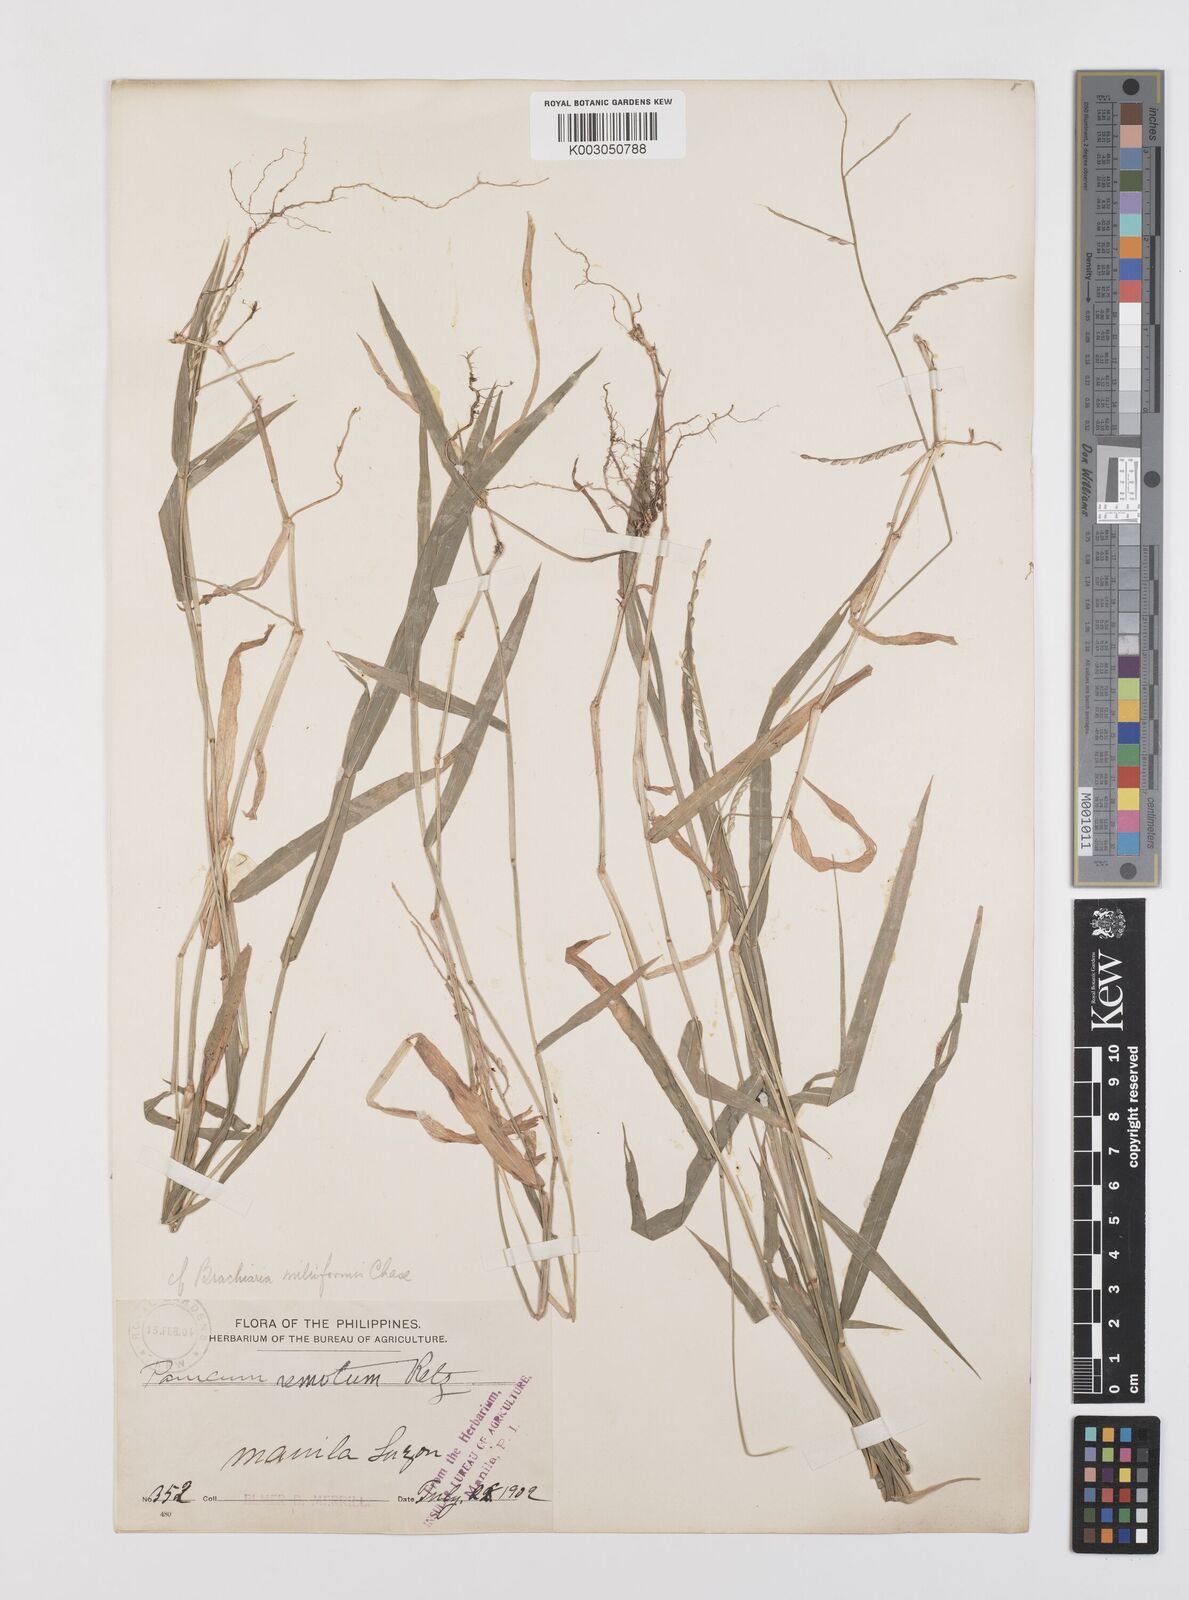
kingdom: Plantae
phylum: Tracheophyta
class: Liliopsida
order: Poales
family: Poaceae
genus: Urochloa
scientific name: Urochloa subquadripara
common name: Armgrass millet
